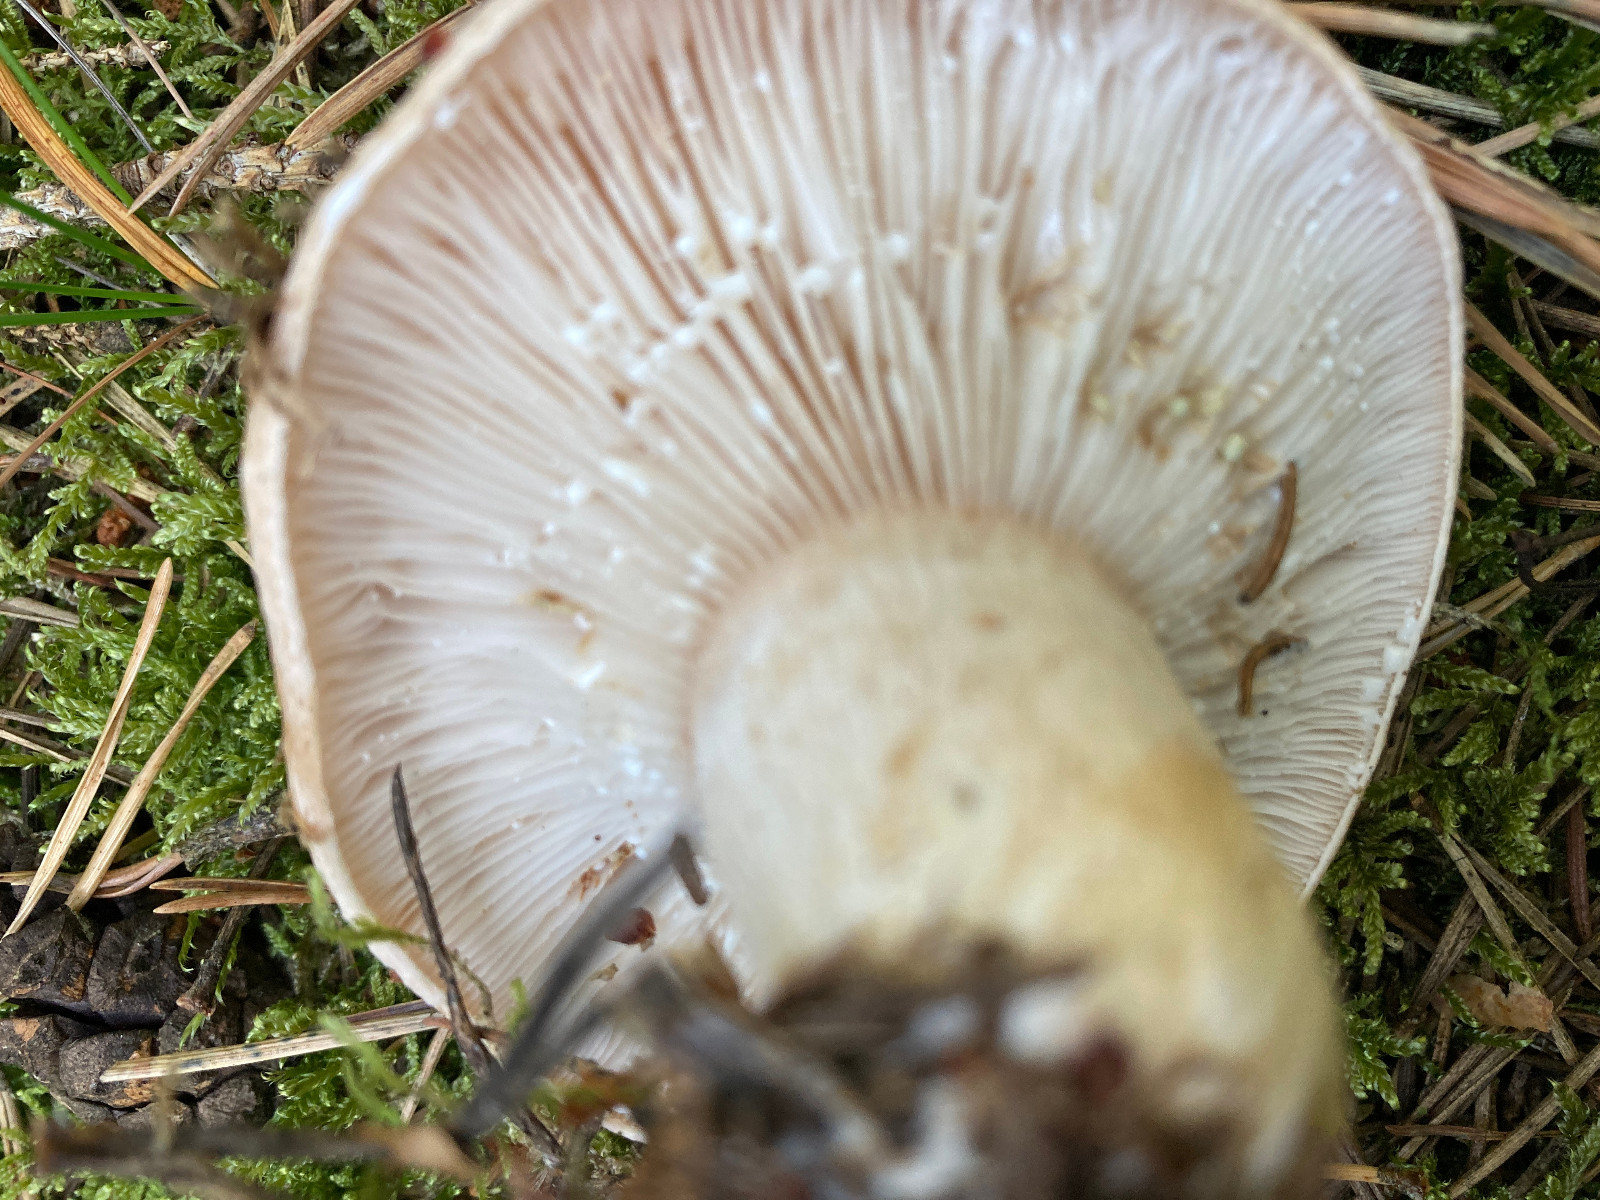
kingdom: Fungi
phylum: Basidiomycota
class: Agaricomycetes
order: Russulales
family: Russulaceae
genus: Lactarius
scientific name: Lactarius musteus
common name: elfenbens-mælkehat
